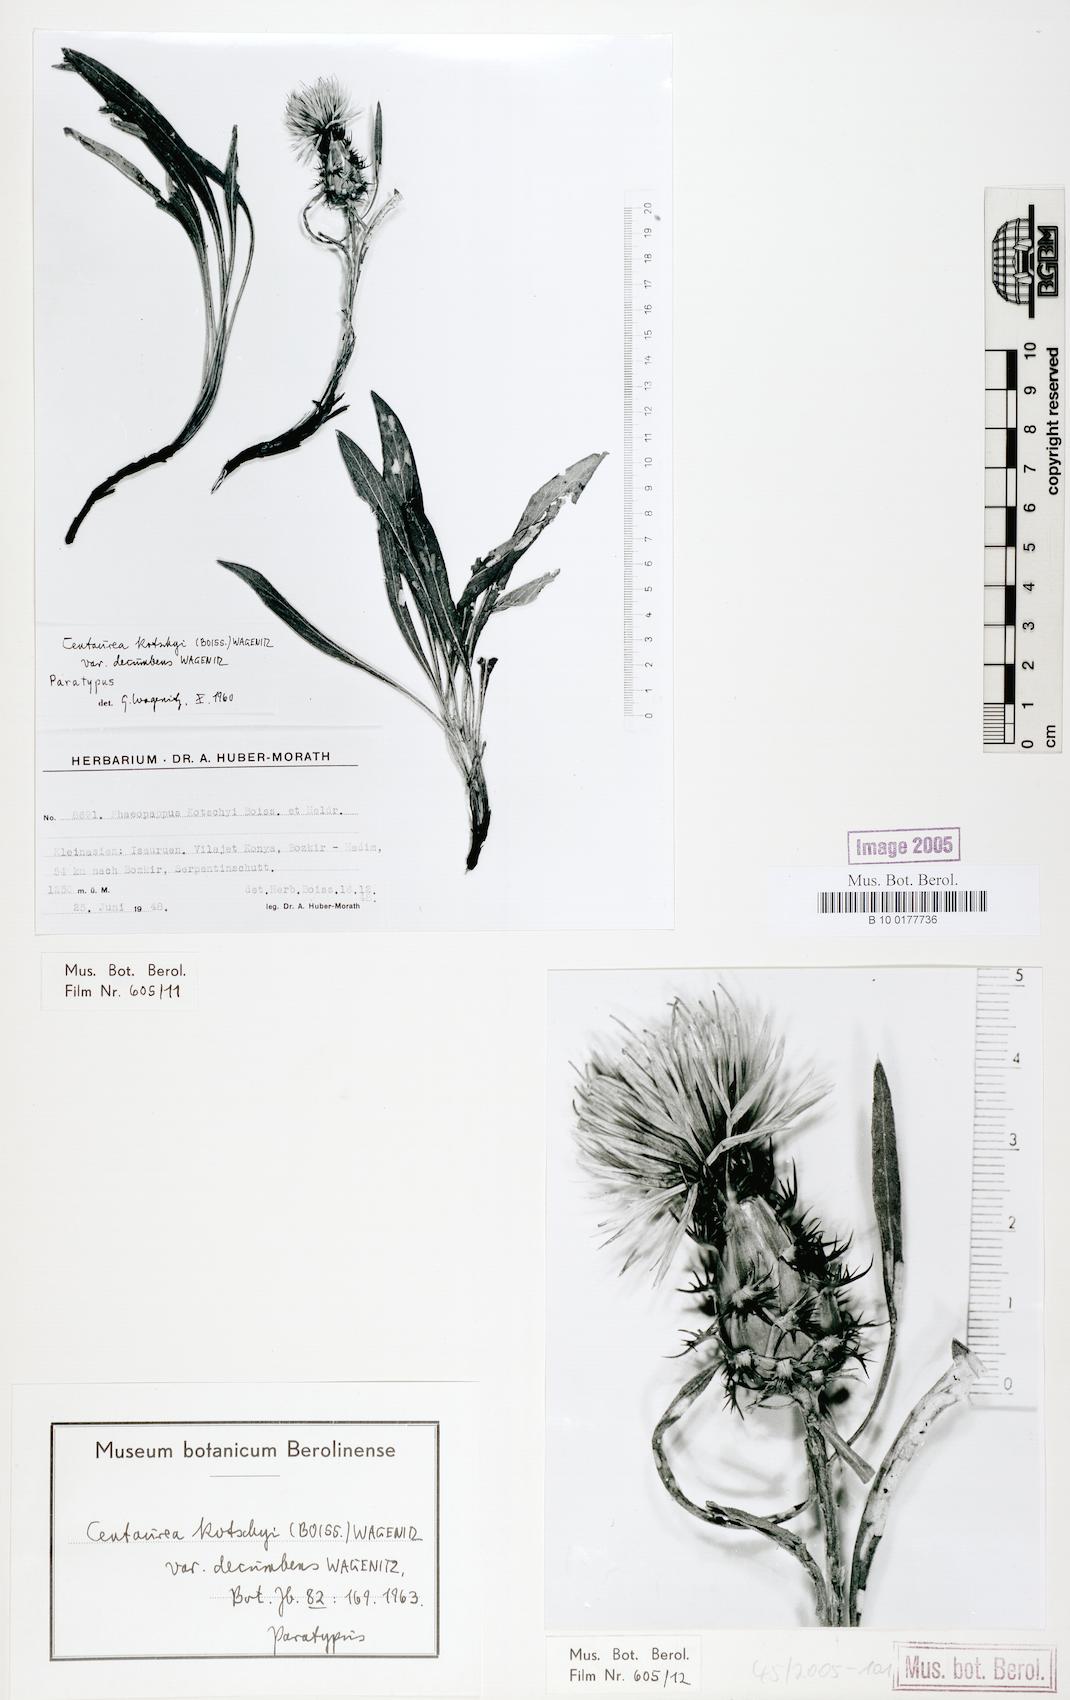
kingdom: Plantae
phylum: Tracheophyta
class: Magnoliopsida
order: Asterales
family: Asteraceae
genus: Centaurea
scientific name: Centaurea kotschyi
